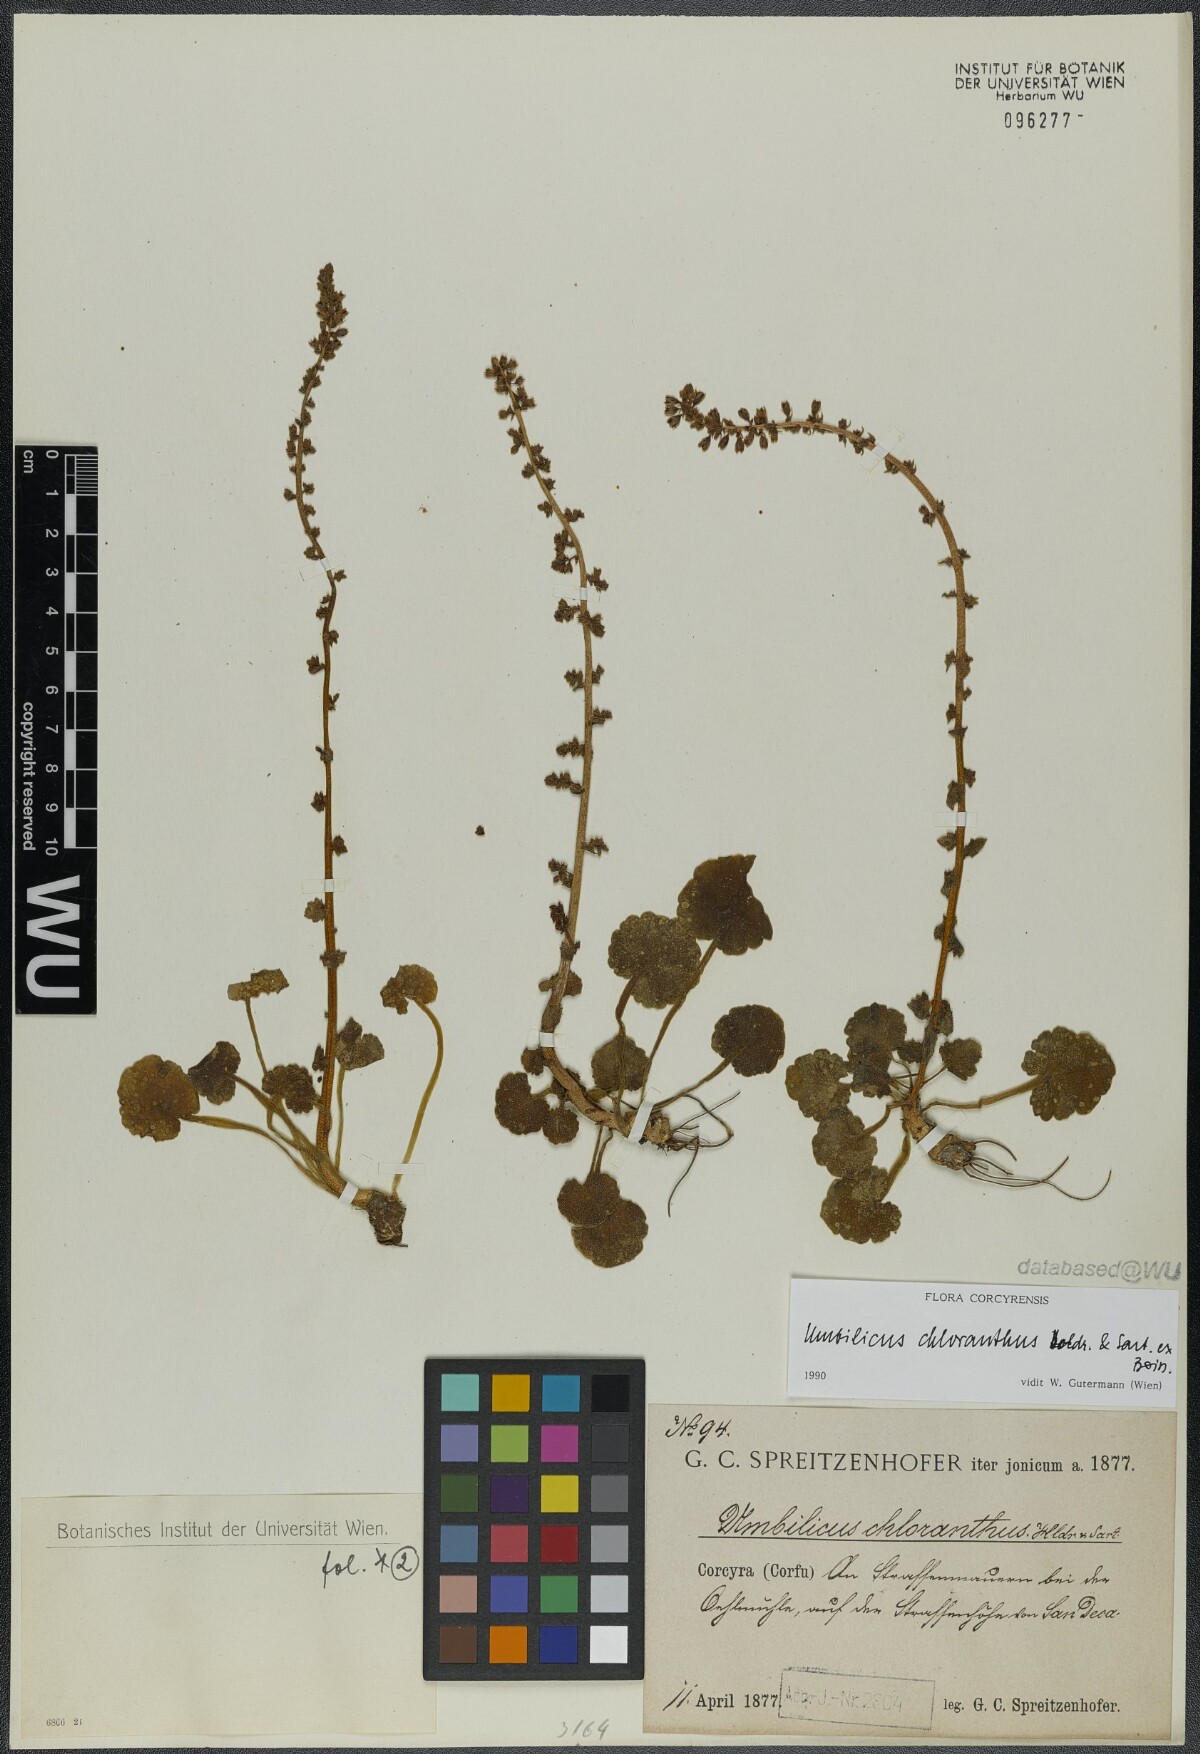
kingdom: Plantae
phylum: Tracheophyta
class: Magnoliopsida
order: Saxifragales
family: Crassulaceae
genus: Umbilicus
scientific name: Umbilicus chloranthus
